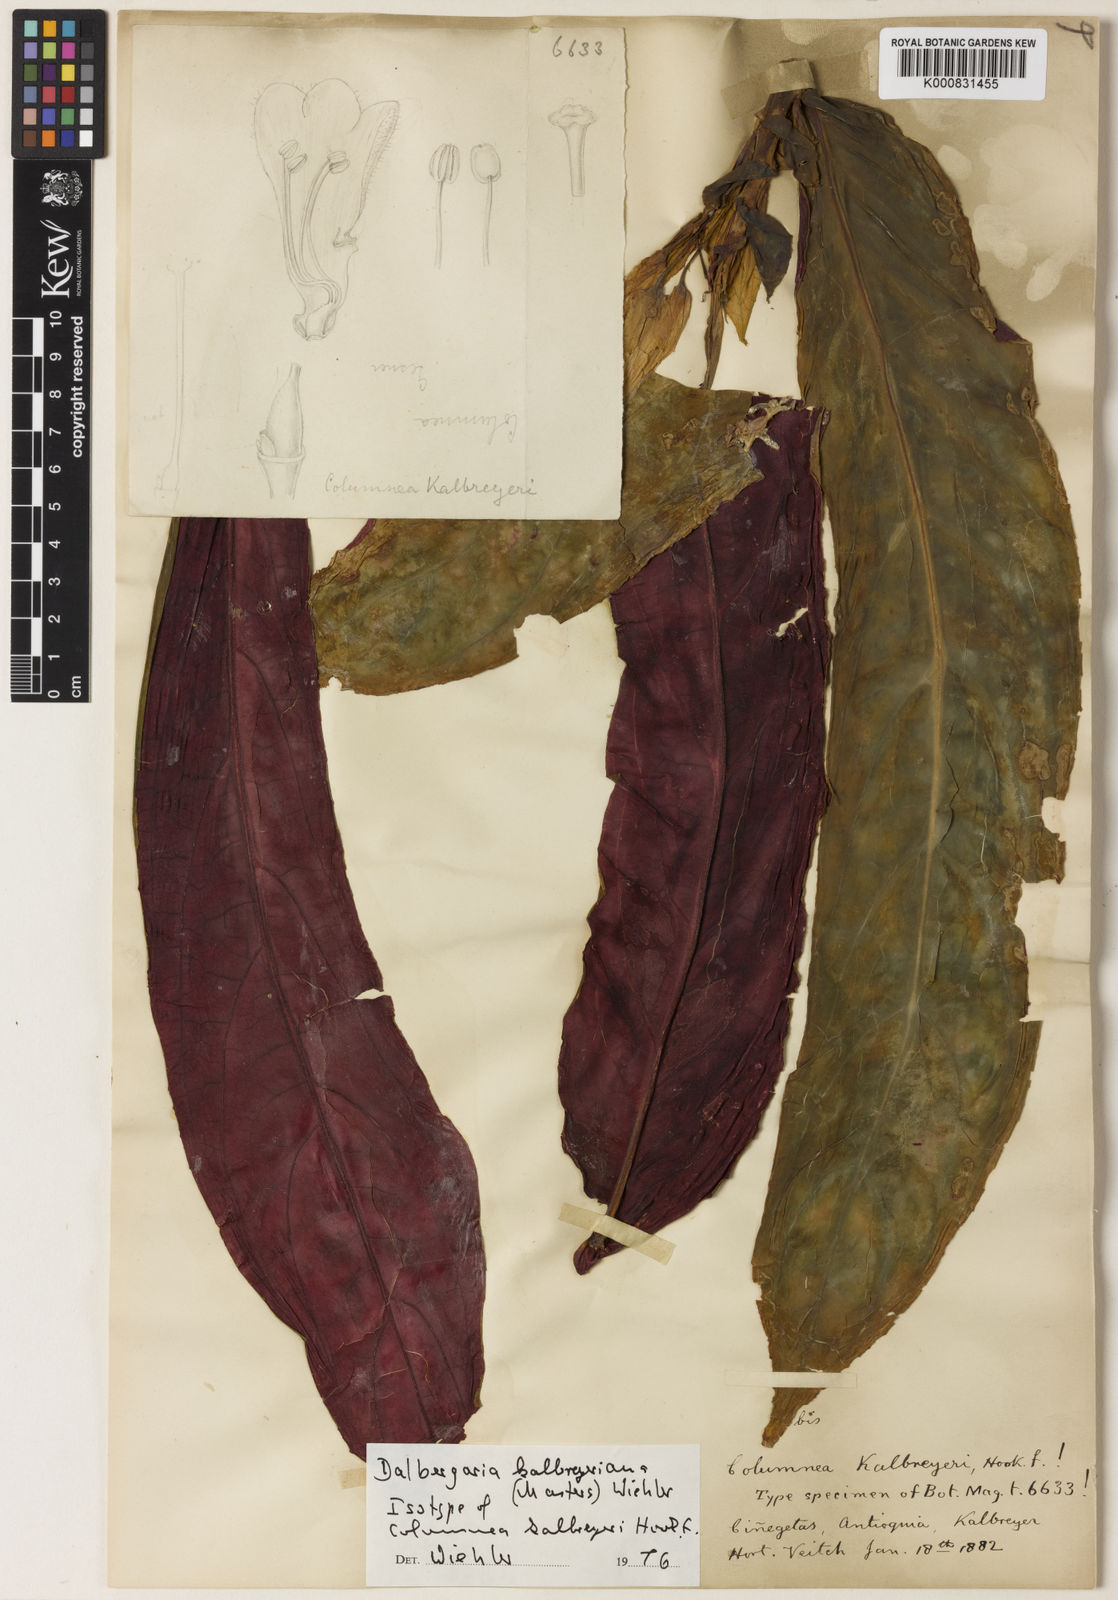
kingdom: Plantae
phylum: Tracheophyta
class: Magnoliopsida
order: Lamiales
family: Gesneriaceae
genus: Columnea
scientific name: Columnea kalbreyeriana
